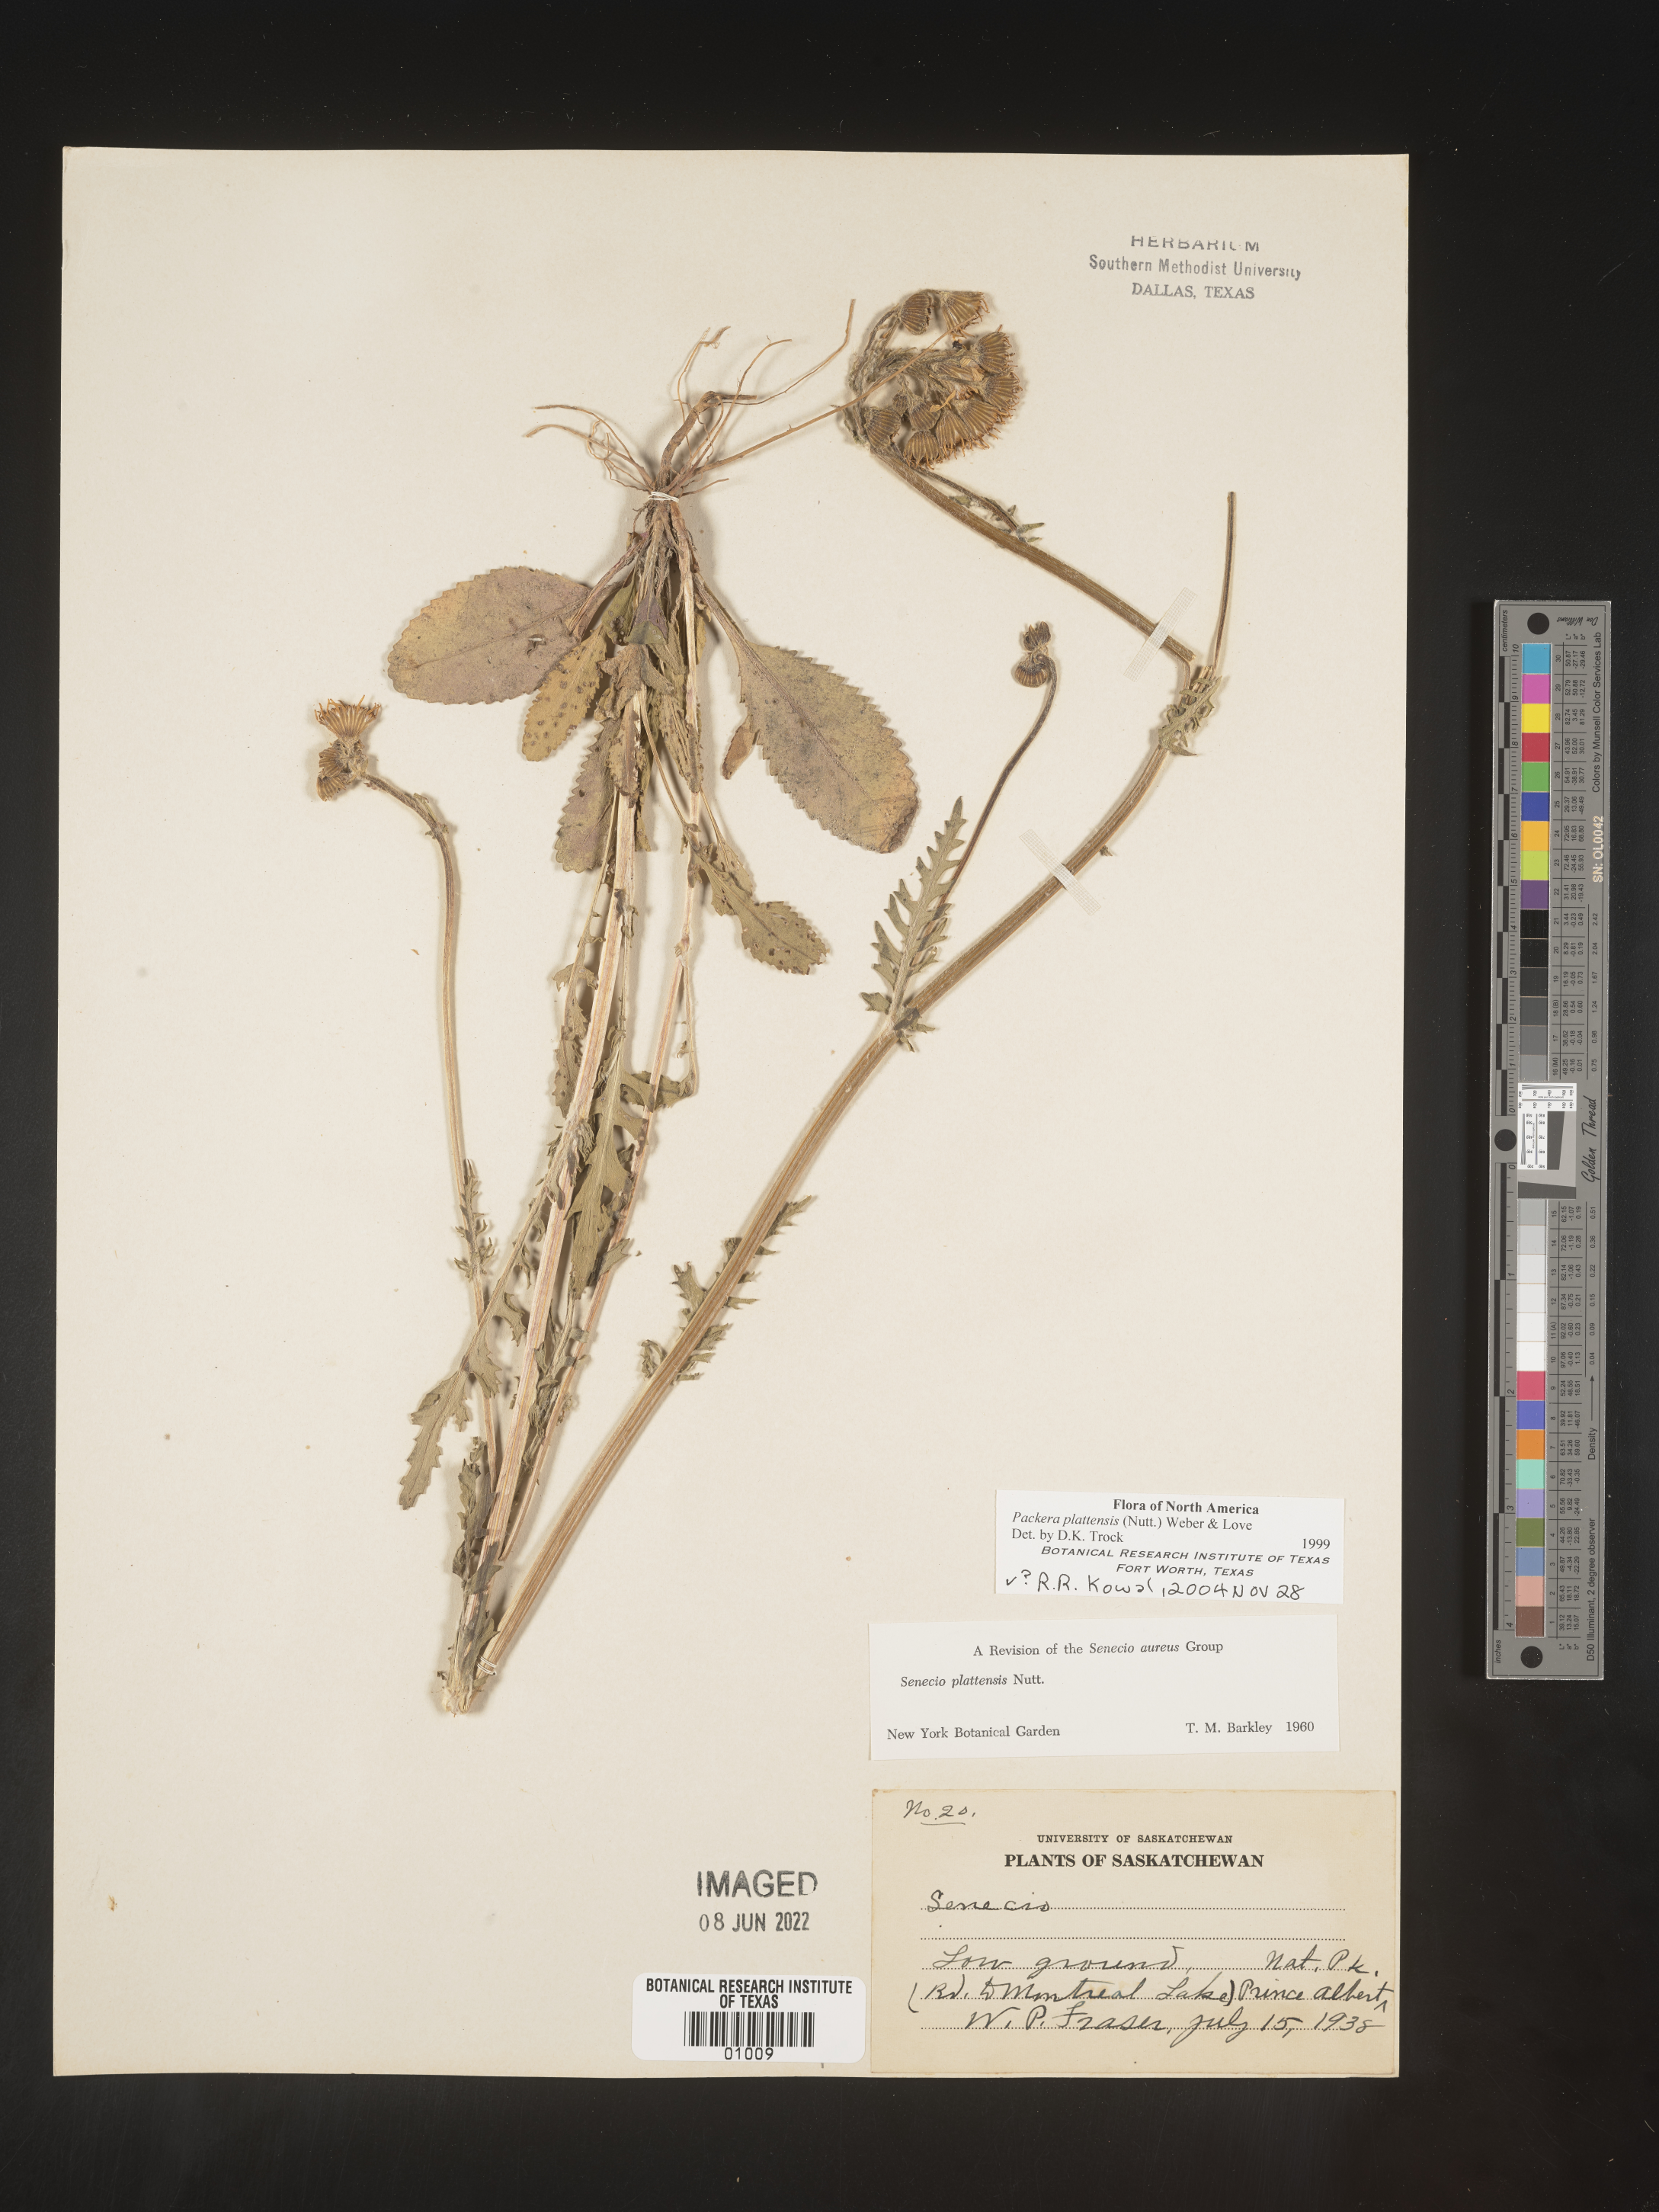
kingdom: Plantae
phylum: Tracheophyta
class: Magnoliopsida
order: Asterales
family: Asteraceae
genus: Packera
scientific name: Packera plattensis
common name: Prairie groundsel
